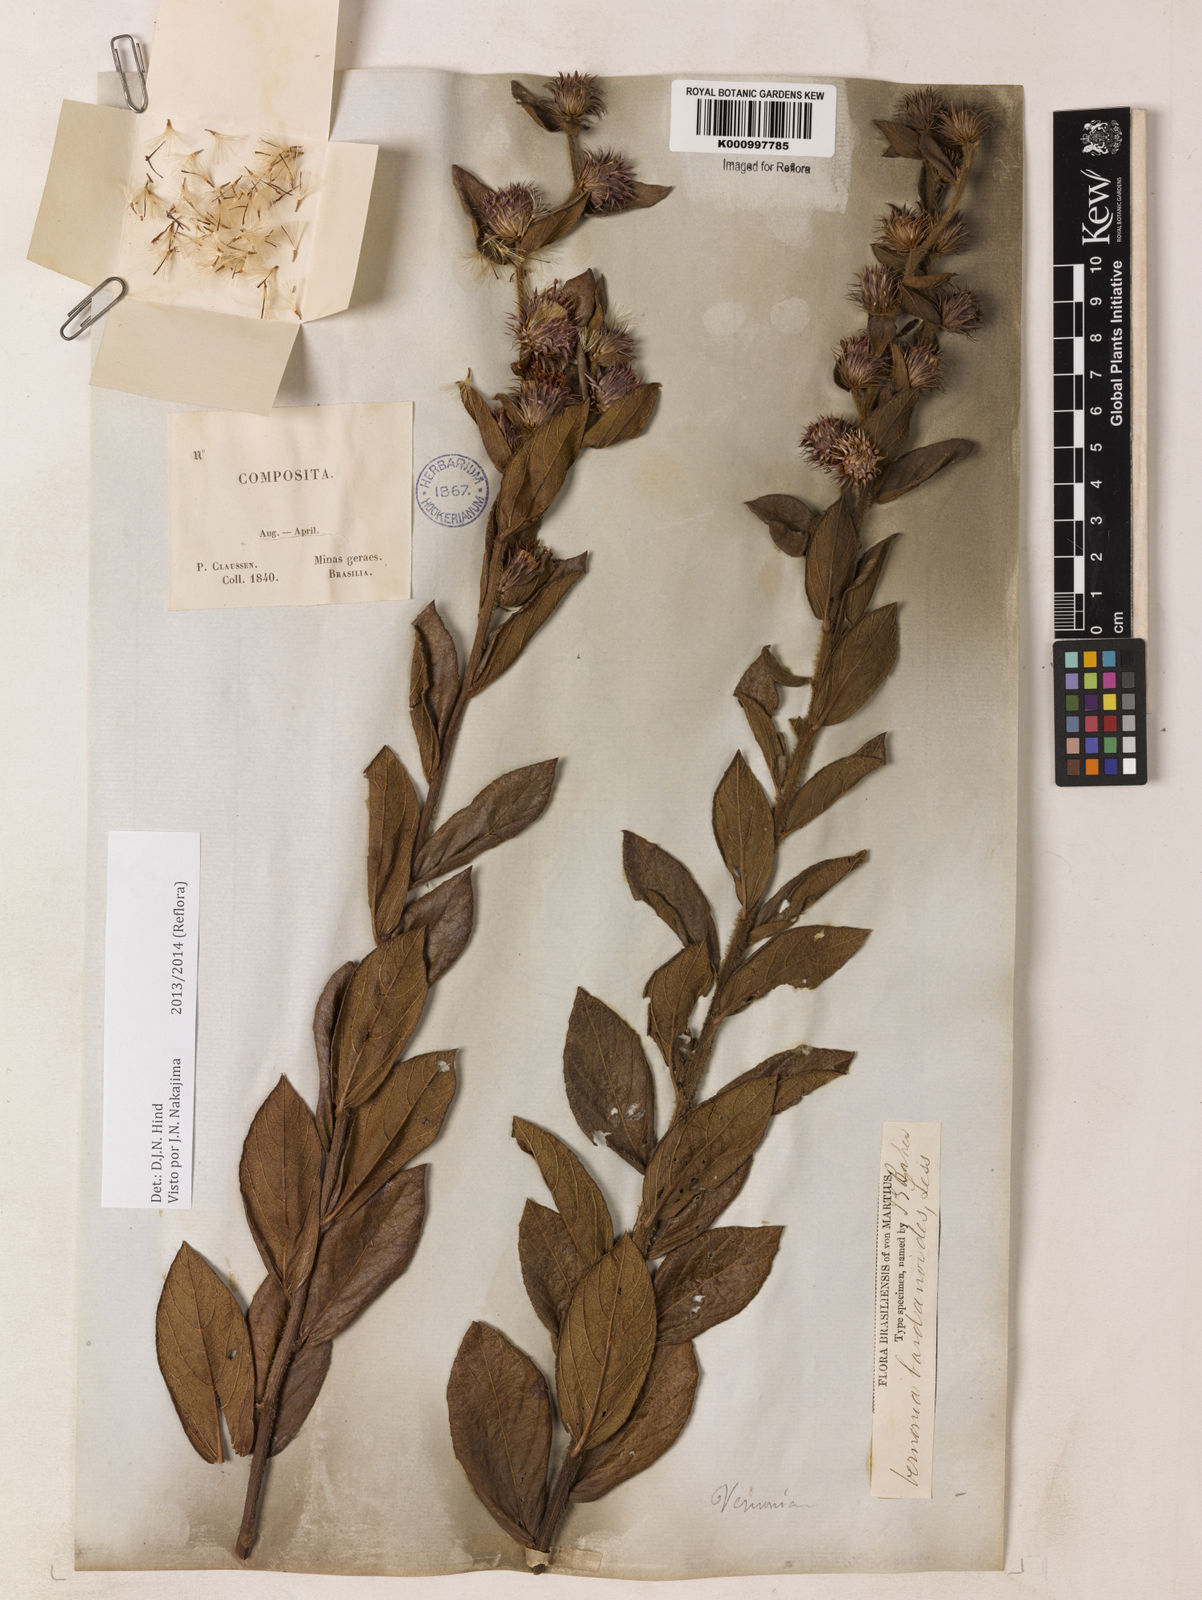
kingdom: Plantae
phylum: Tracheophyta
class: Magnoliopsida
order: Asterales
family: Asteraceae
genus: Lessingianthus
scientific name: Lessingianthus bardanioides
